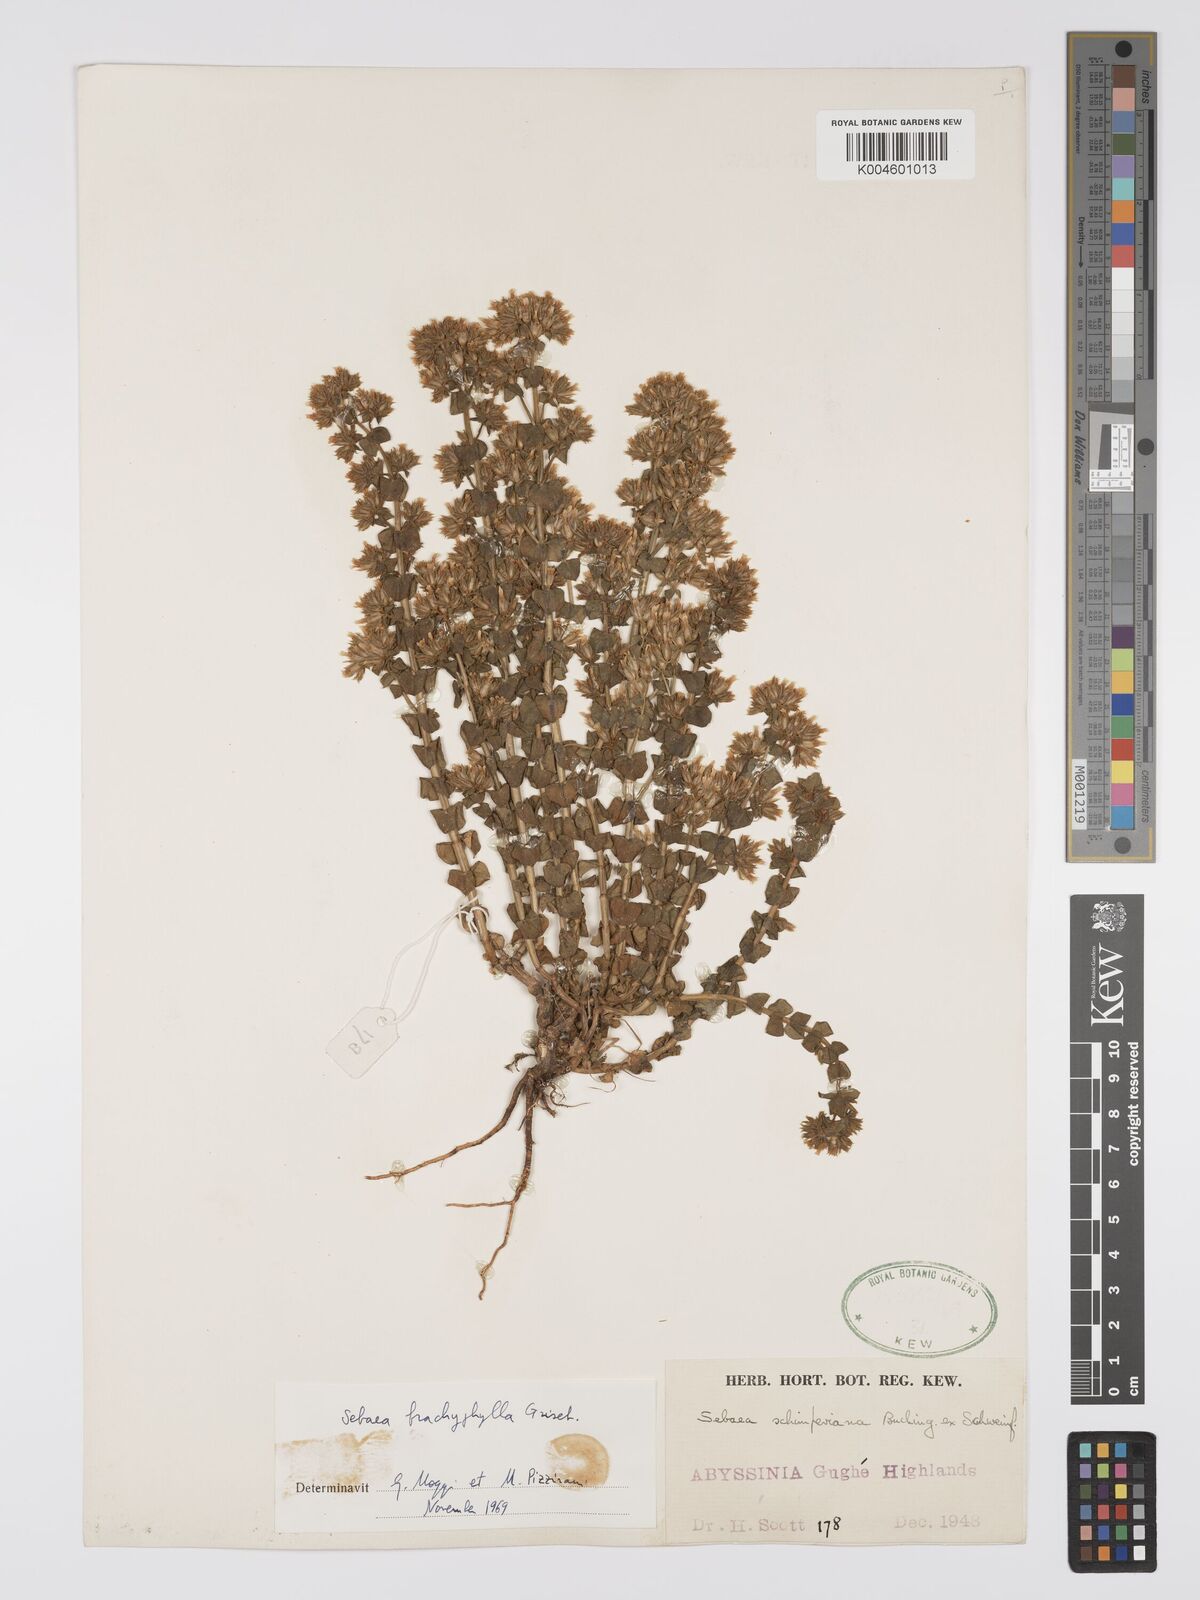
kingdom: Plantae
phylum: Tracheophyta
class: Magnoliopsida
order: Gentianales
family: Gentianaceae
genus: Sebaea
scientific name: Sebaea brachyphylla
